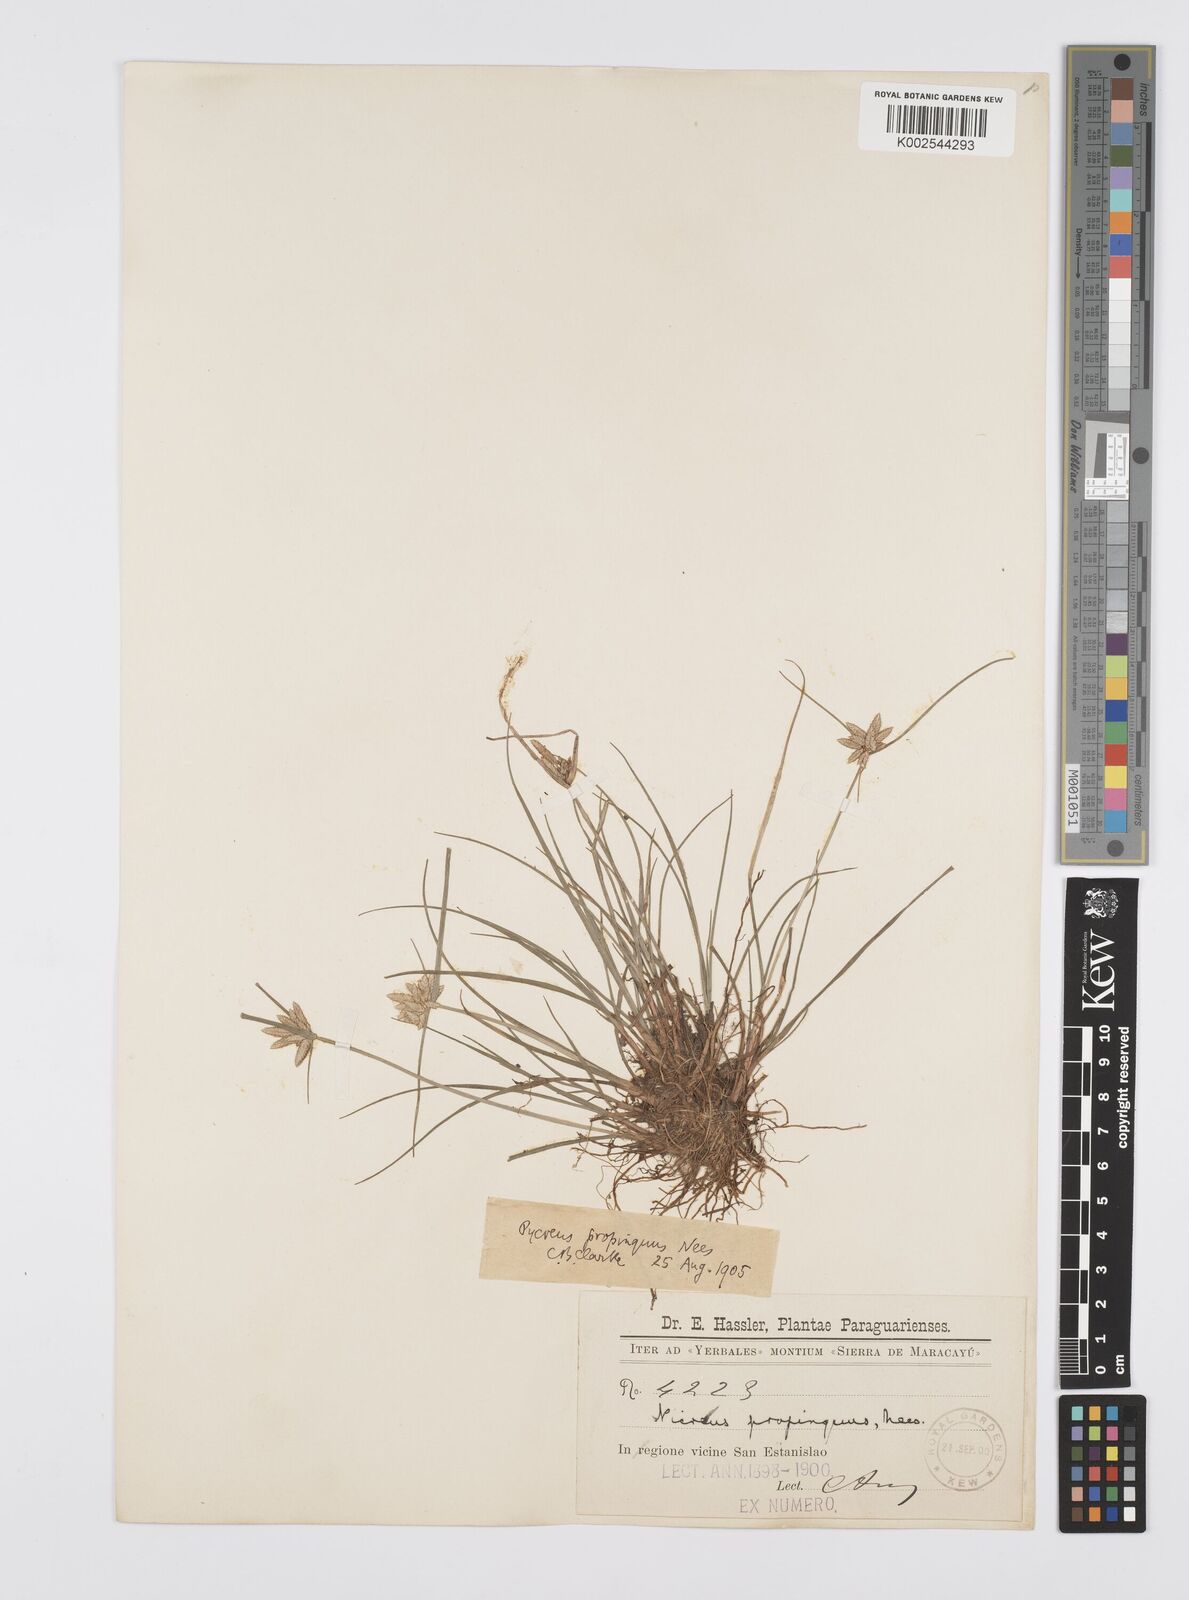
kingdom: Plantae
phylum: Tracheophyta
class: Liliopsida
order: Poales
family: Cyperaceae
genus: Cyperus
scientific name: Cyperus
